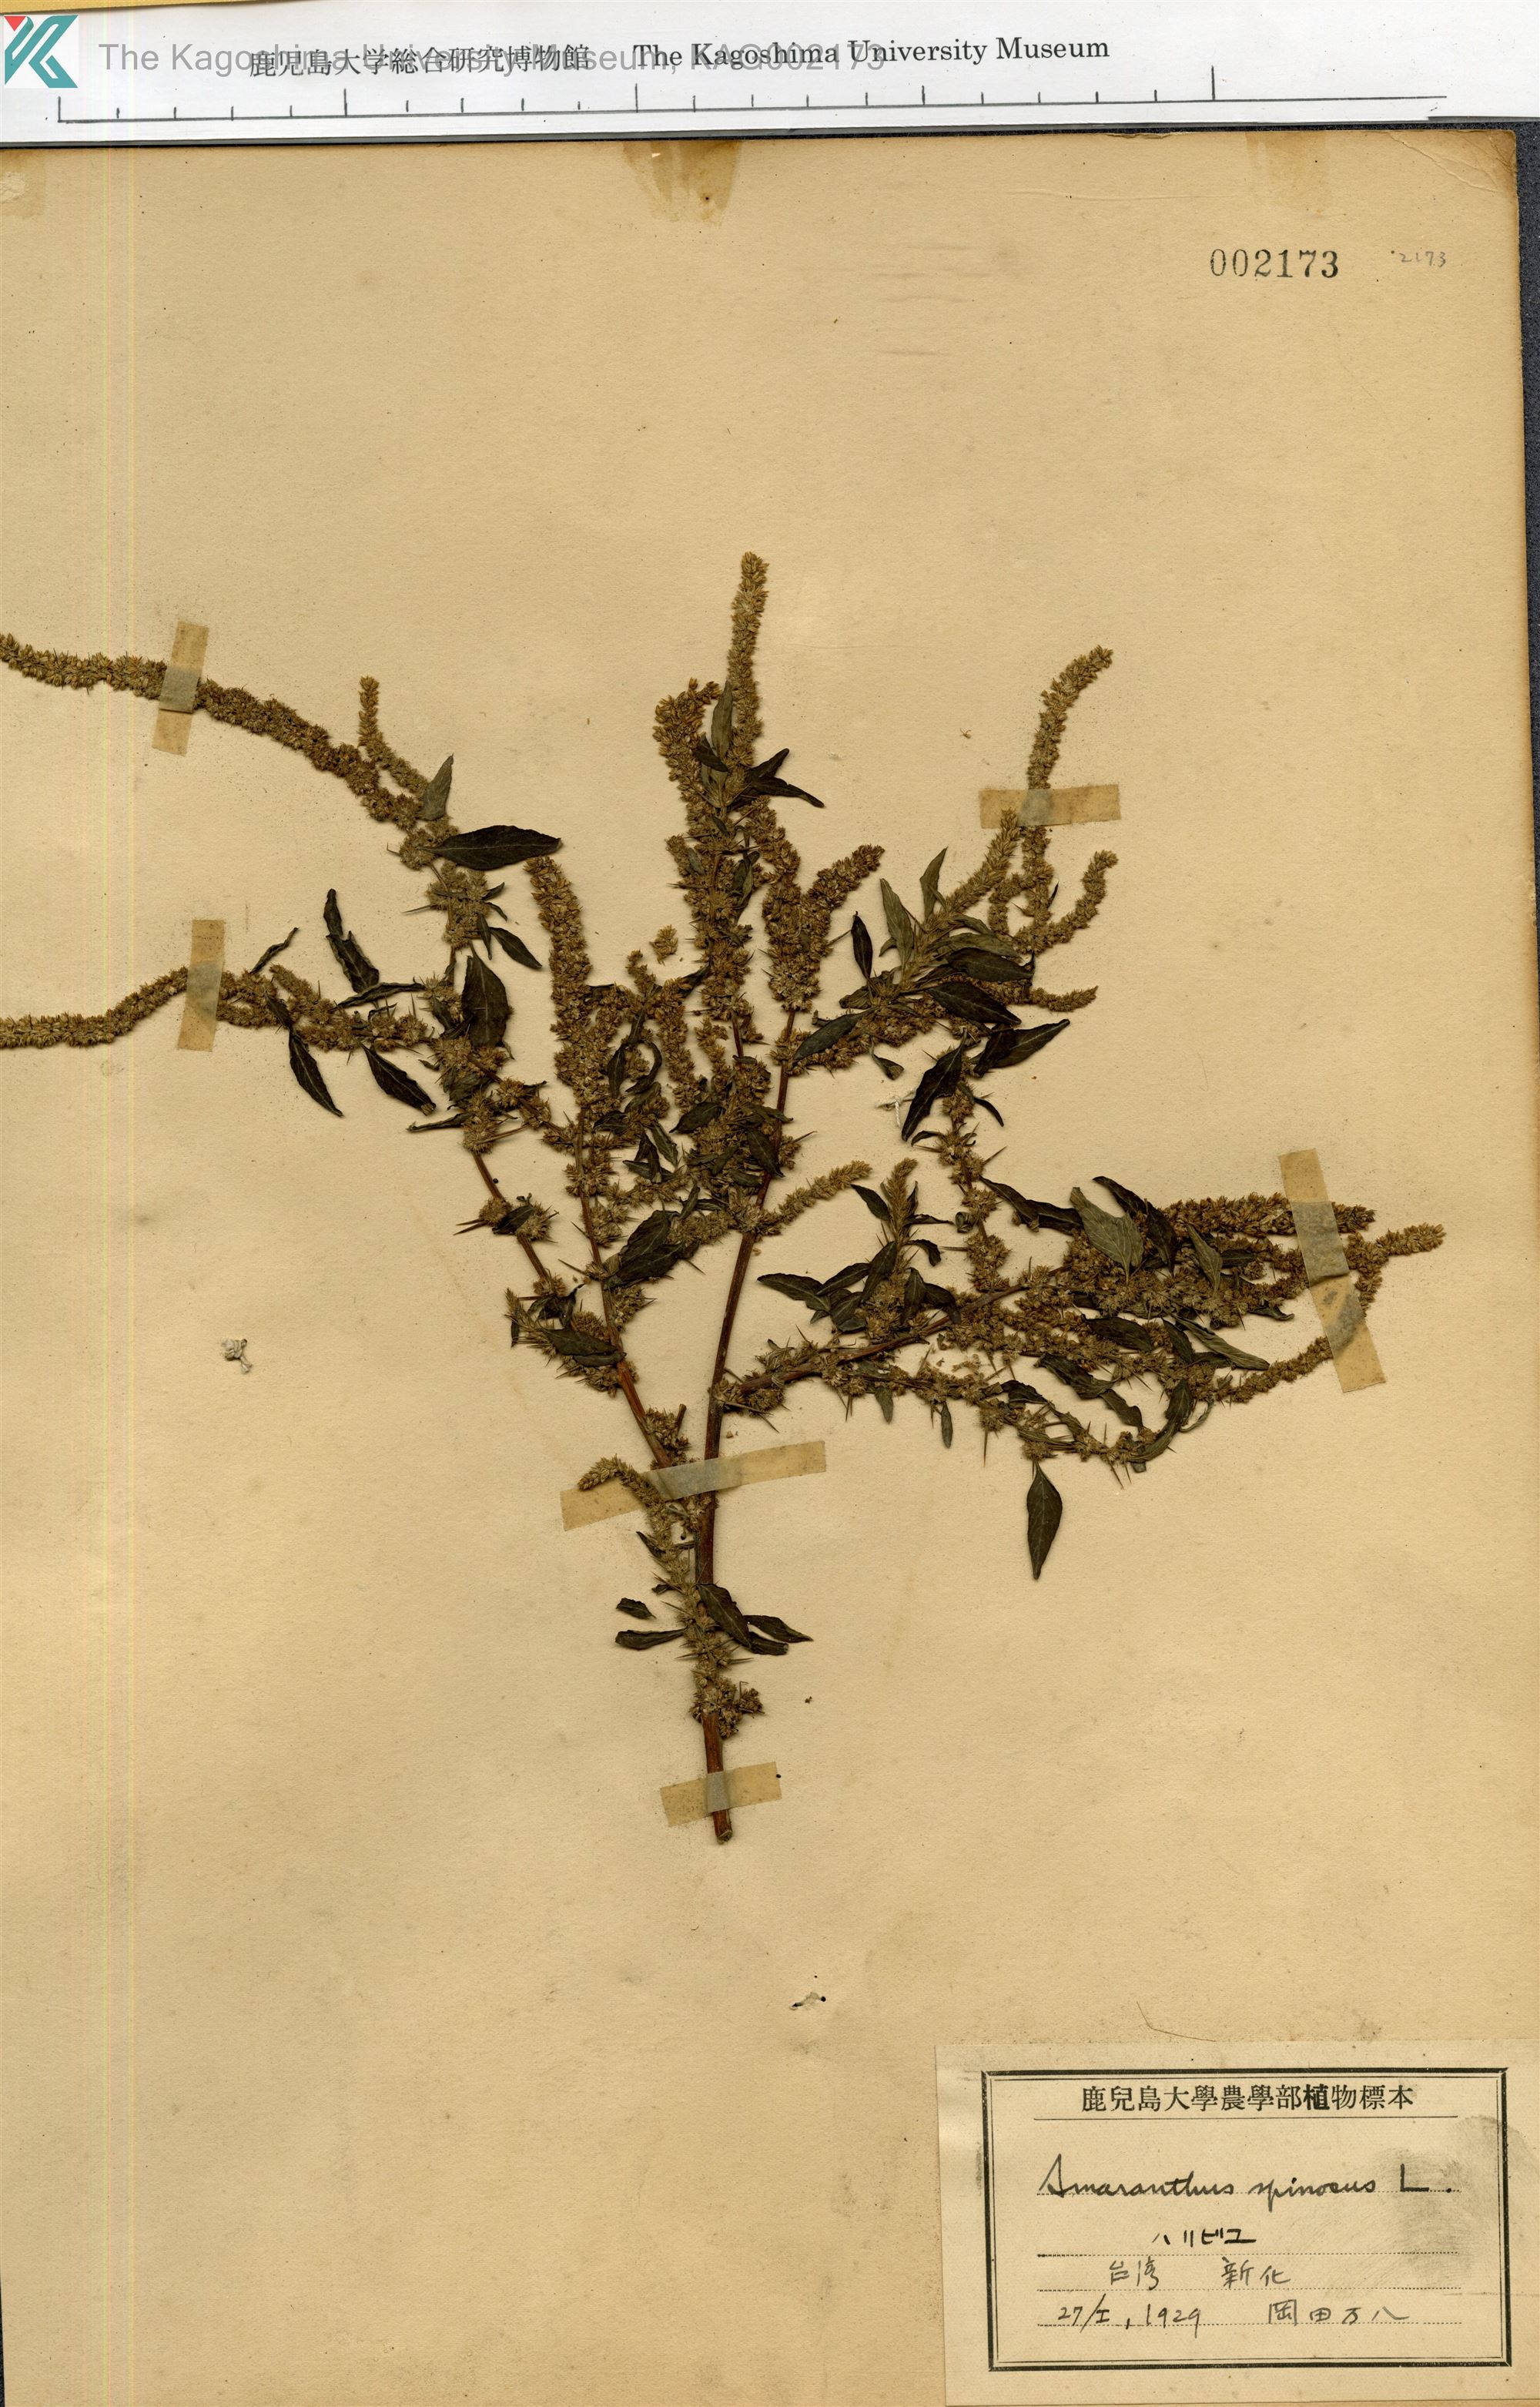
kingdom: Plantae
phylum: Tracheophyta
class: Magnoliopsida
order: Caryophyllales
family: Amaranthaceae
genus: Amaranthus
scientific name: Amaranthus spinosus
